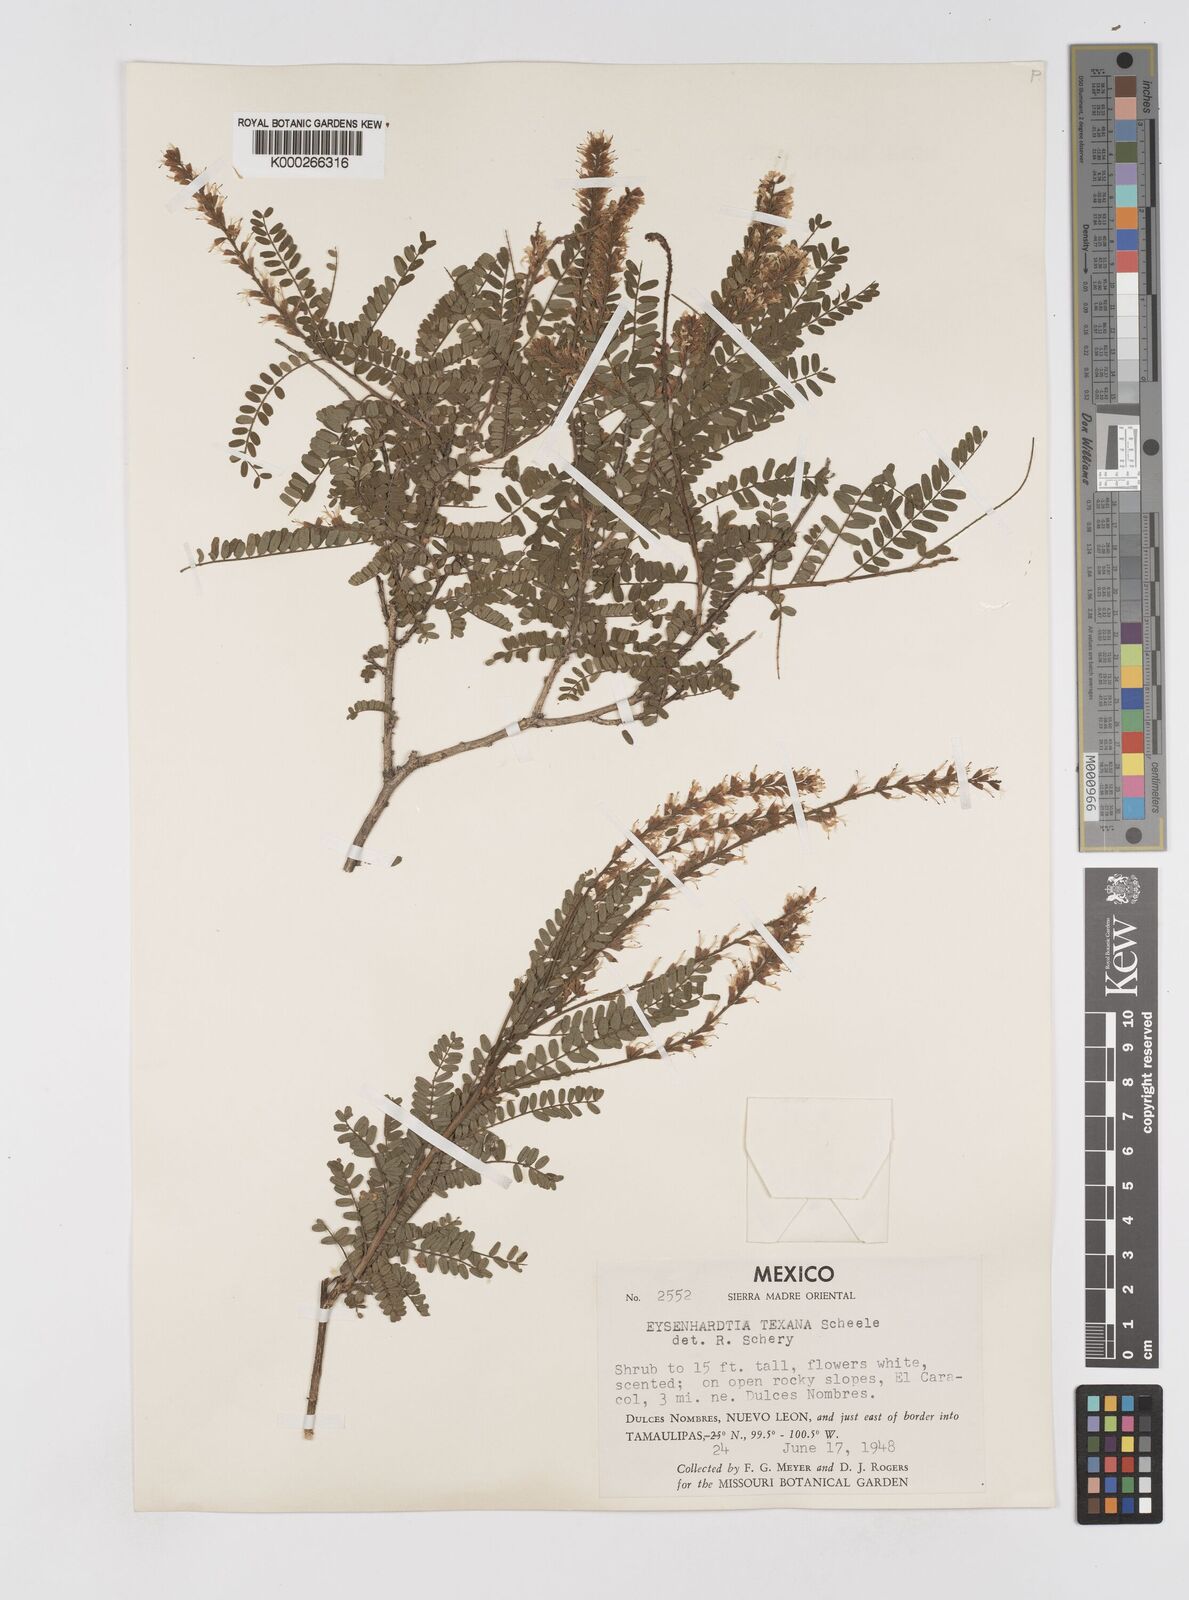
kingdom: Plantae
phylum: Tracheophyta
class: Magnoliopsida
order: Fabales
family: Fabaceae
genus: Eysenhardtia
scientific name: Eysenhardtia texana
